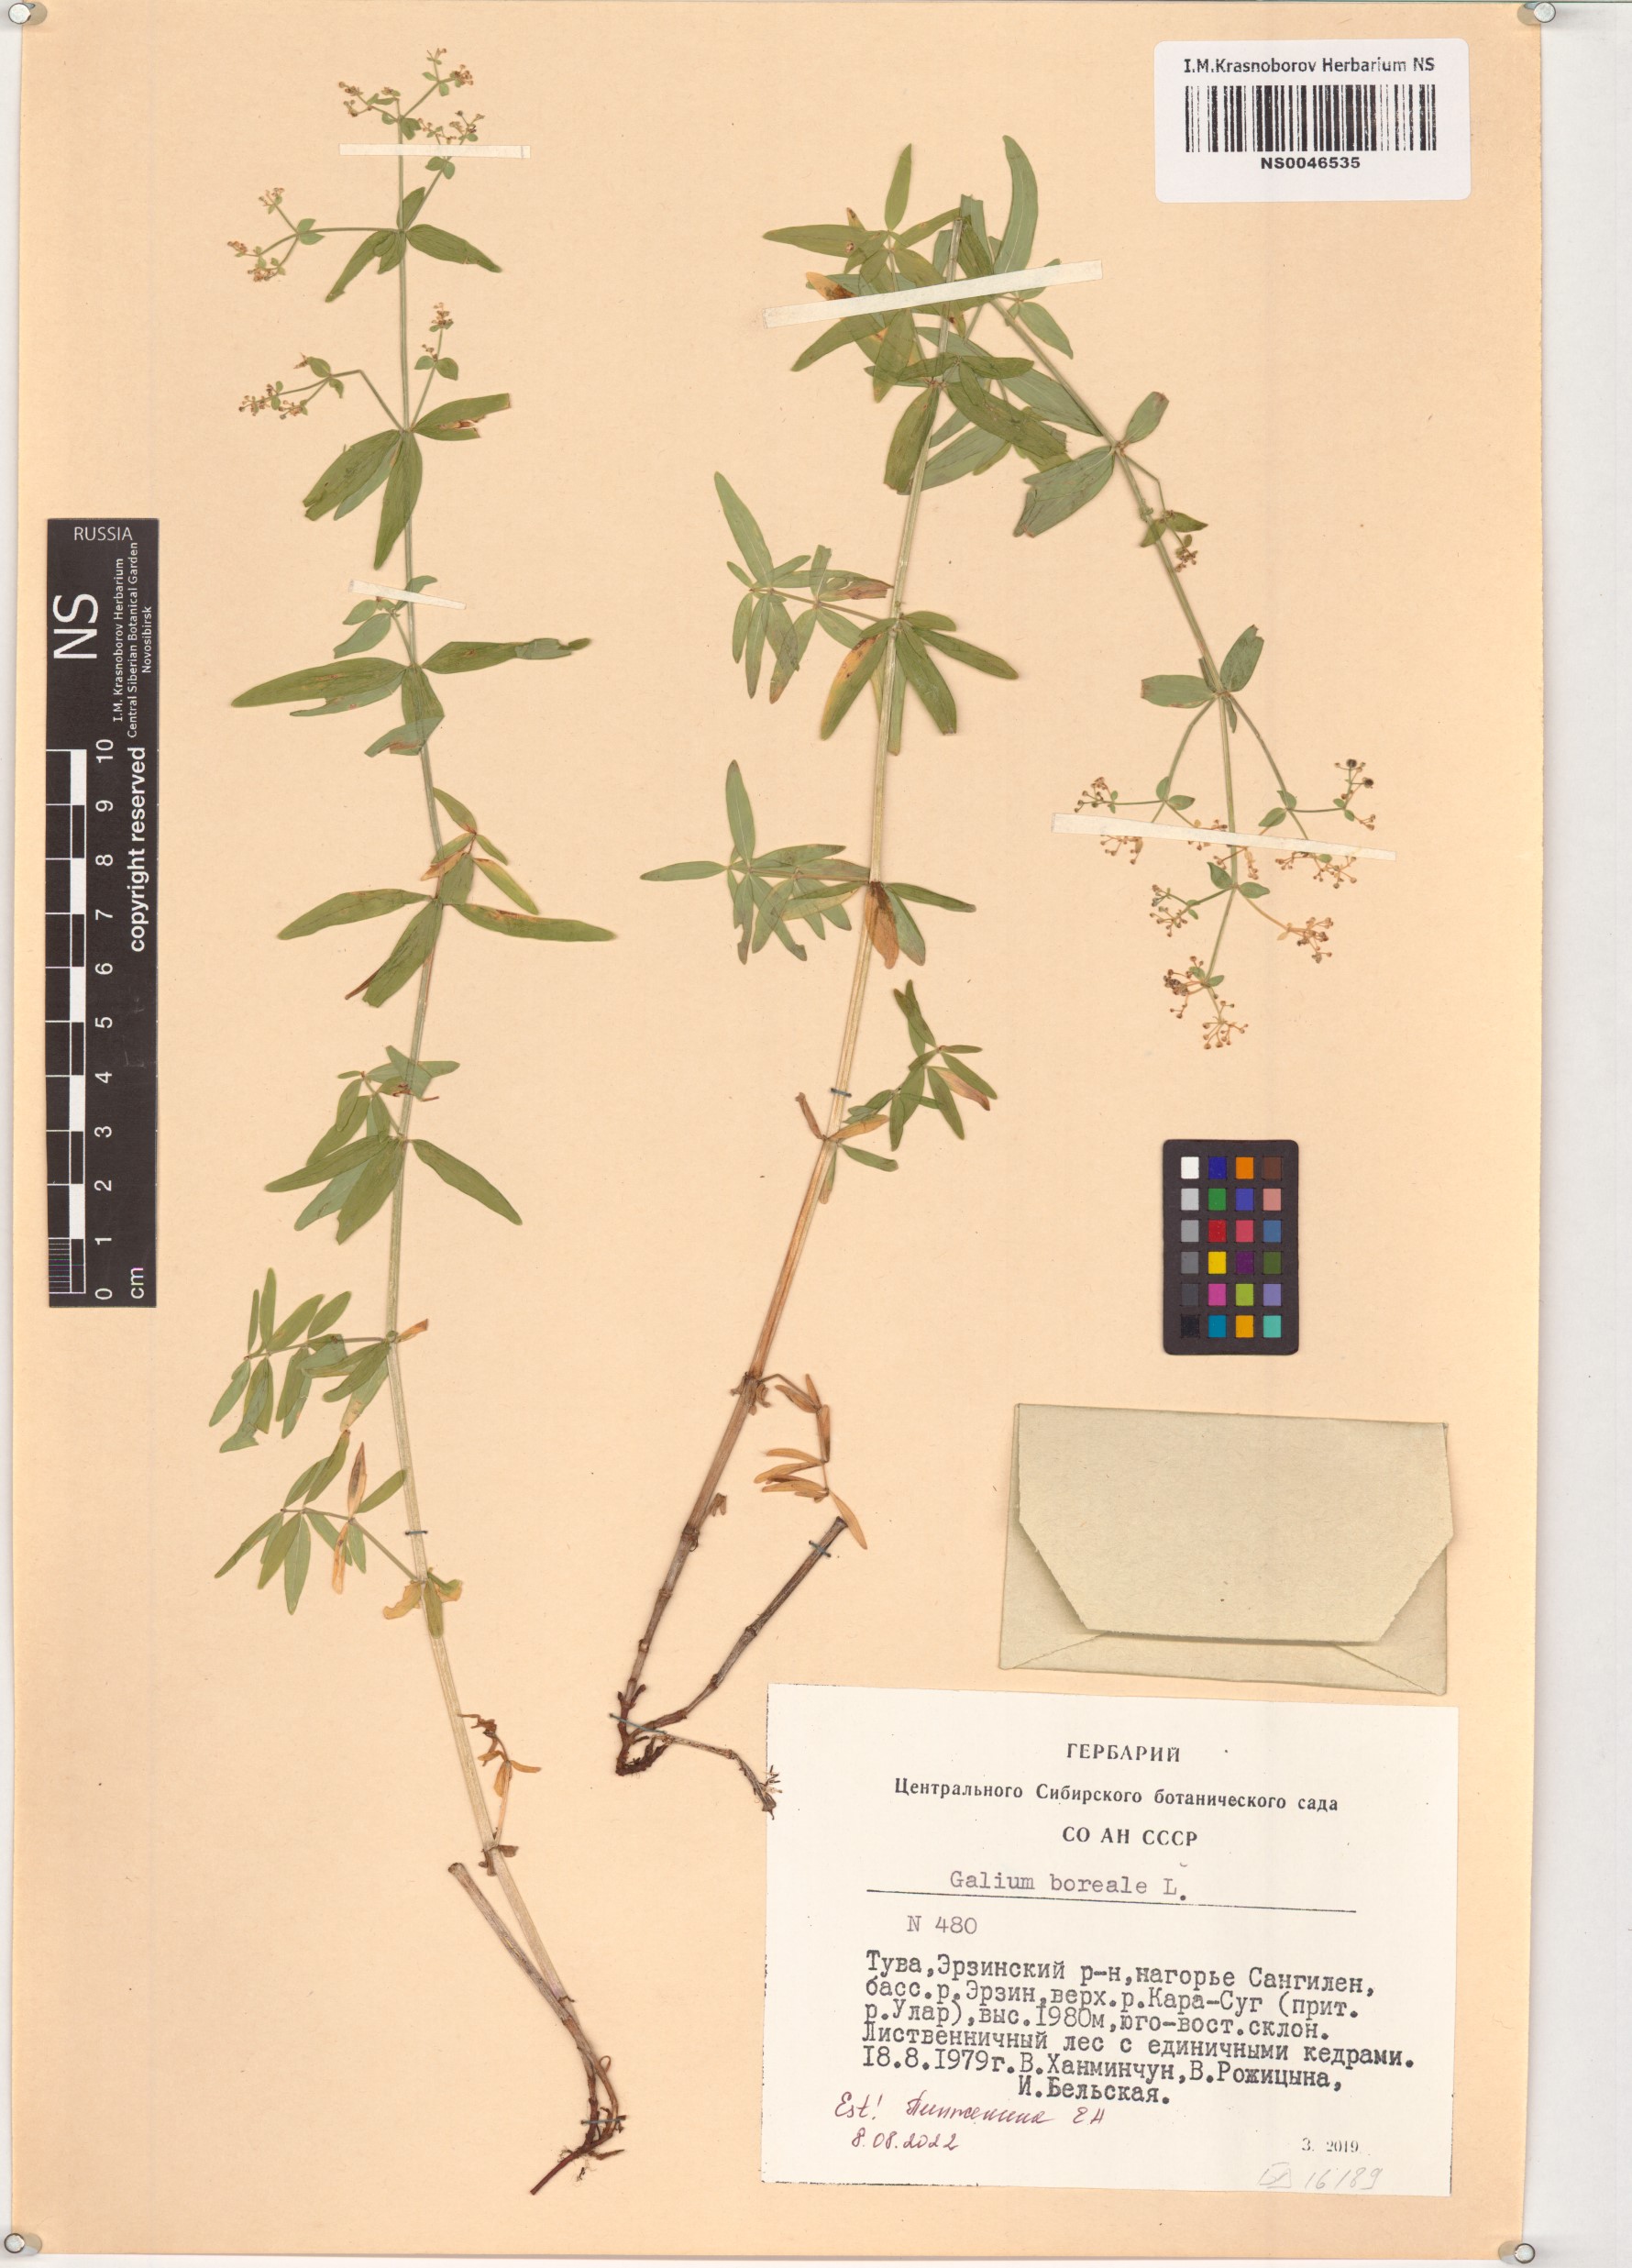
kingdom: Plantae
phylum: Tracheophyta
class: Magnoliopsida
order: Gentianales
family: Rubiaceae
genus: Galium
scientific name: Galium boreale
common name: Northern bedstraw
